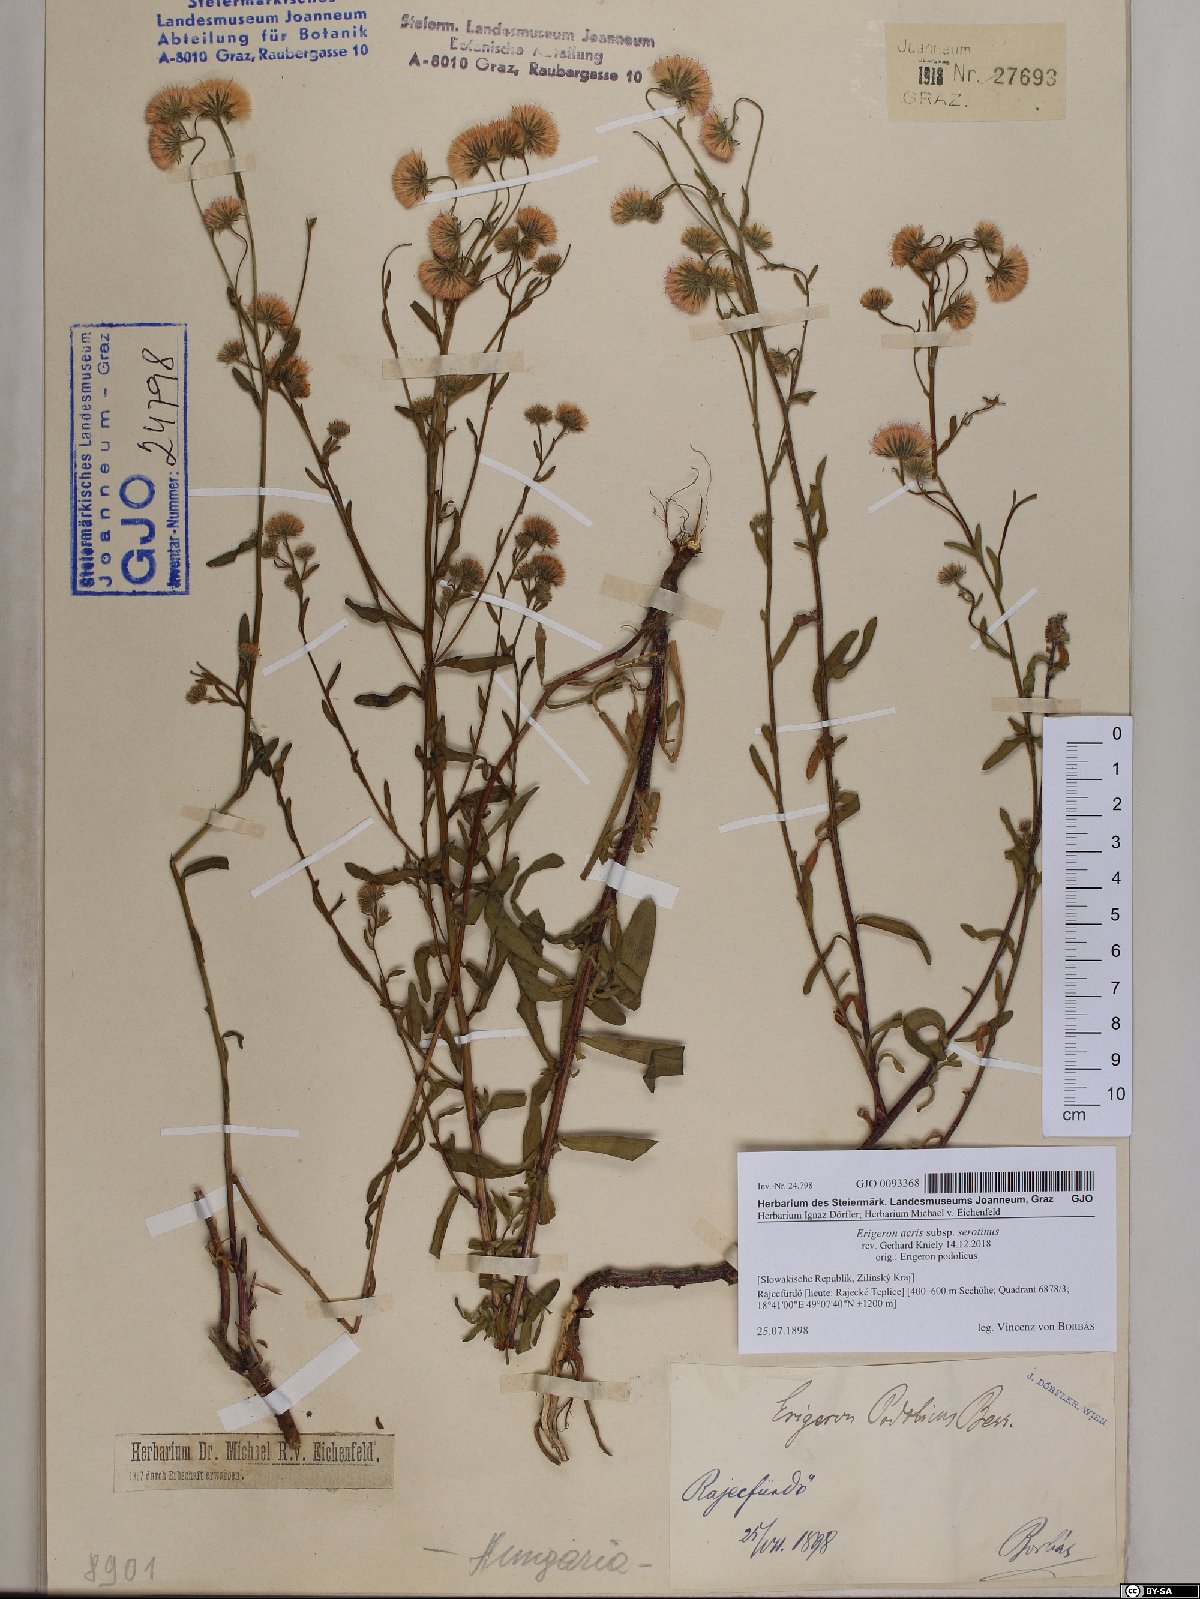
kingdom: Plantae
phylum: Tracheophyta
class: Magnoliopsida
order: Asterales
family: Asteraceae
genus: Erigeron
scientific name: Erigeron muralis
